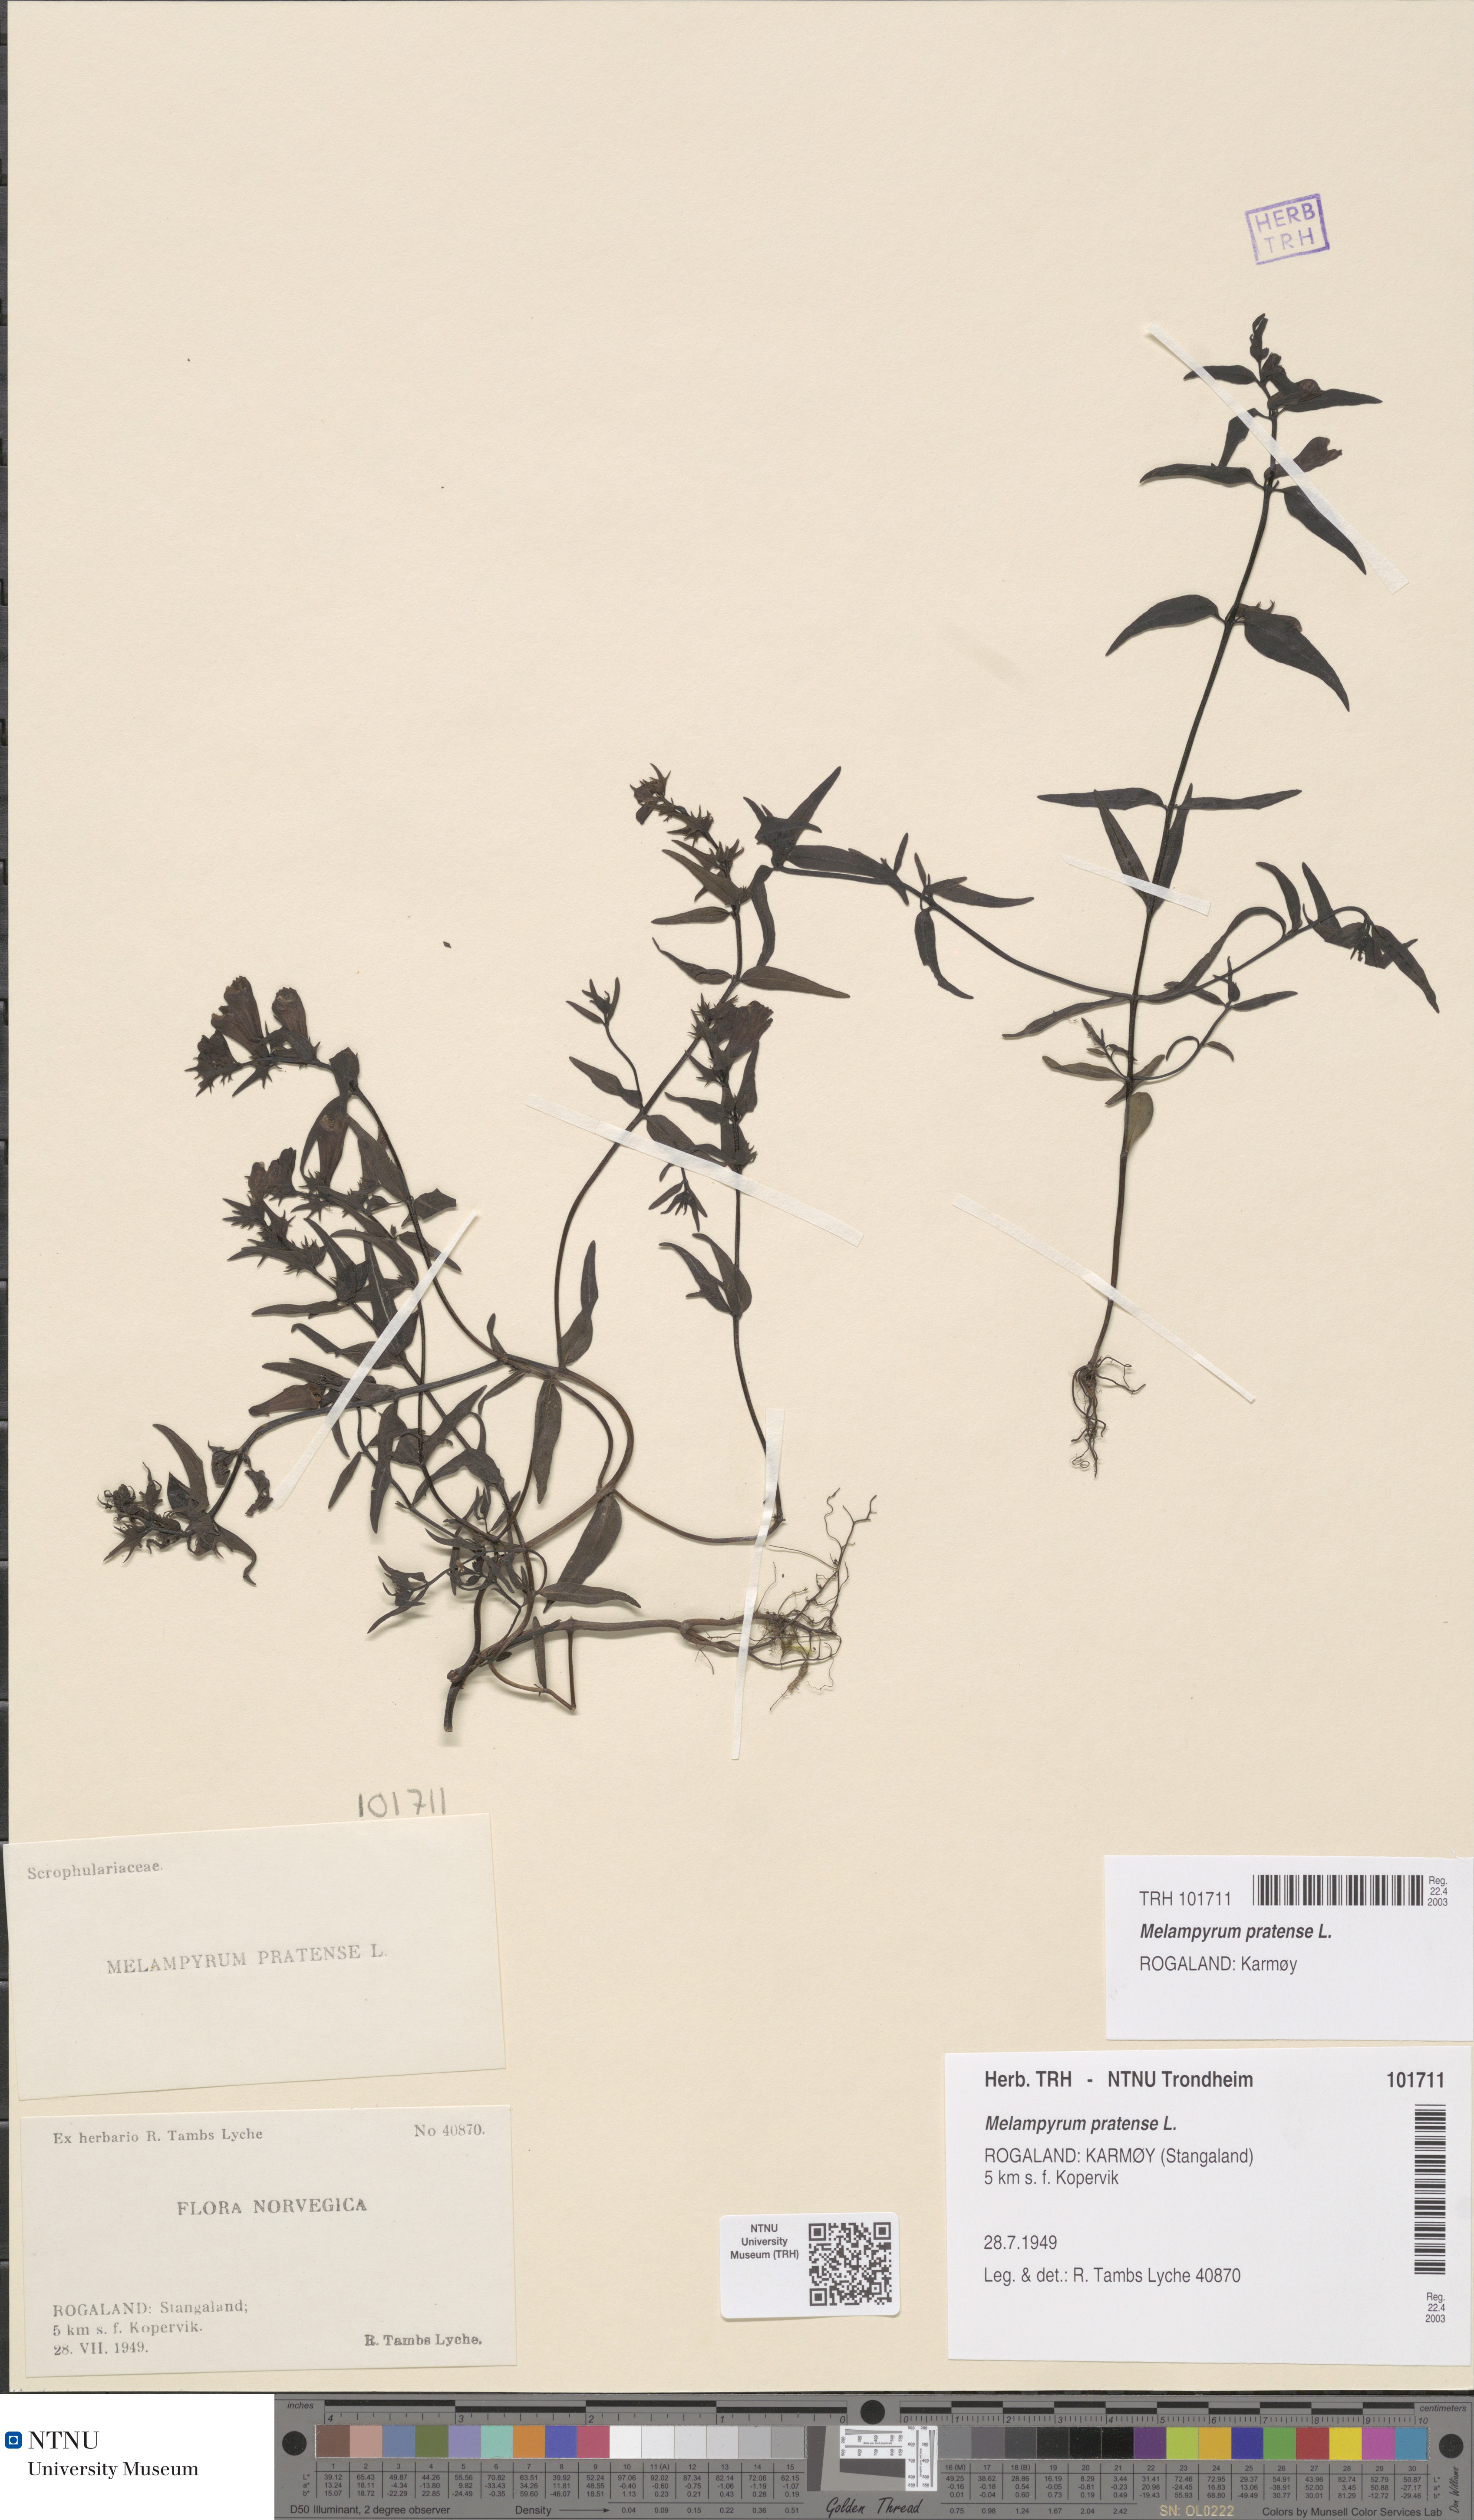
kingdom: Plantae
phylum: Tracheophyta
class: Magnoliopsida
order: Lamiales
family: Orobanchaceae
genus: Melampyrum
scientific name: Melampyrum pratense
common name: Common cow-wheat
